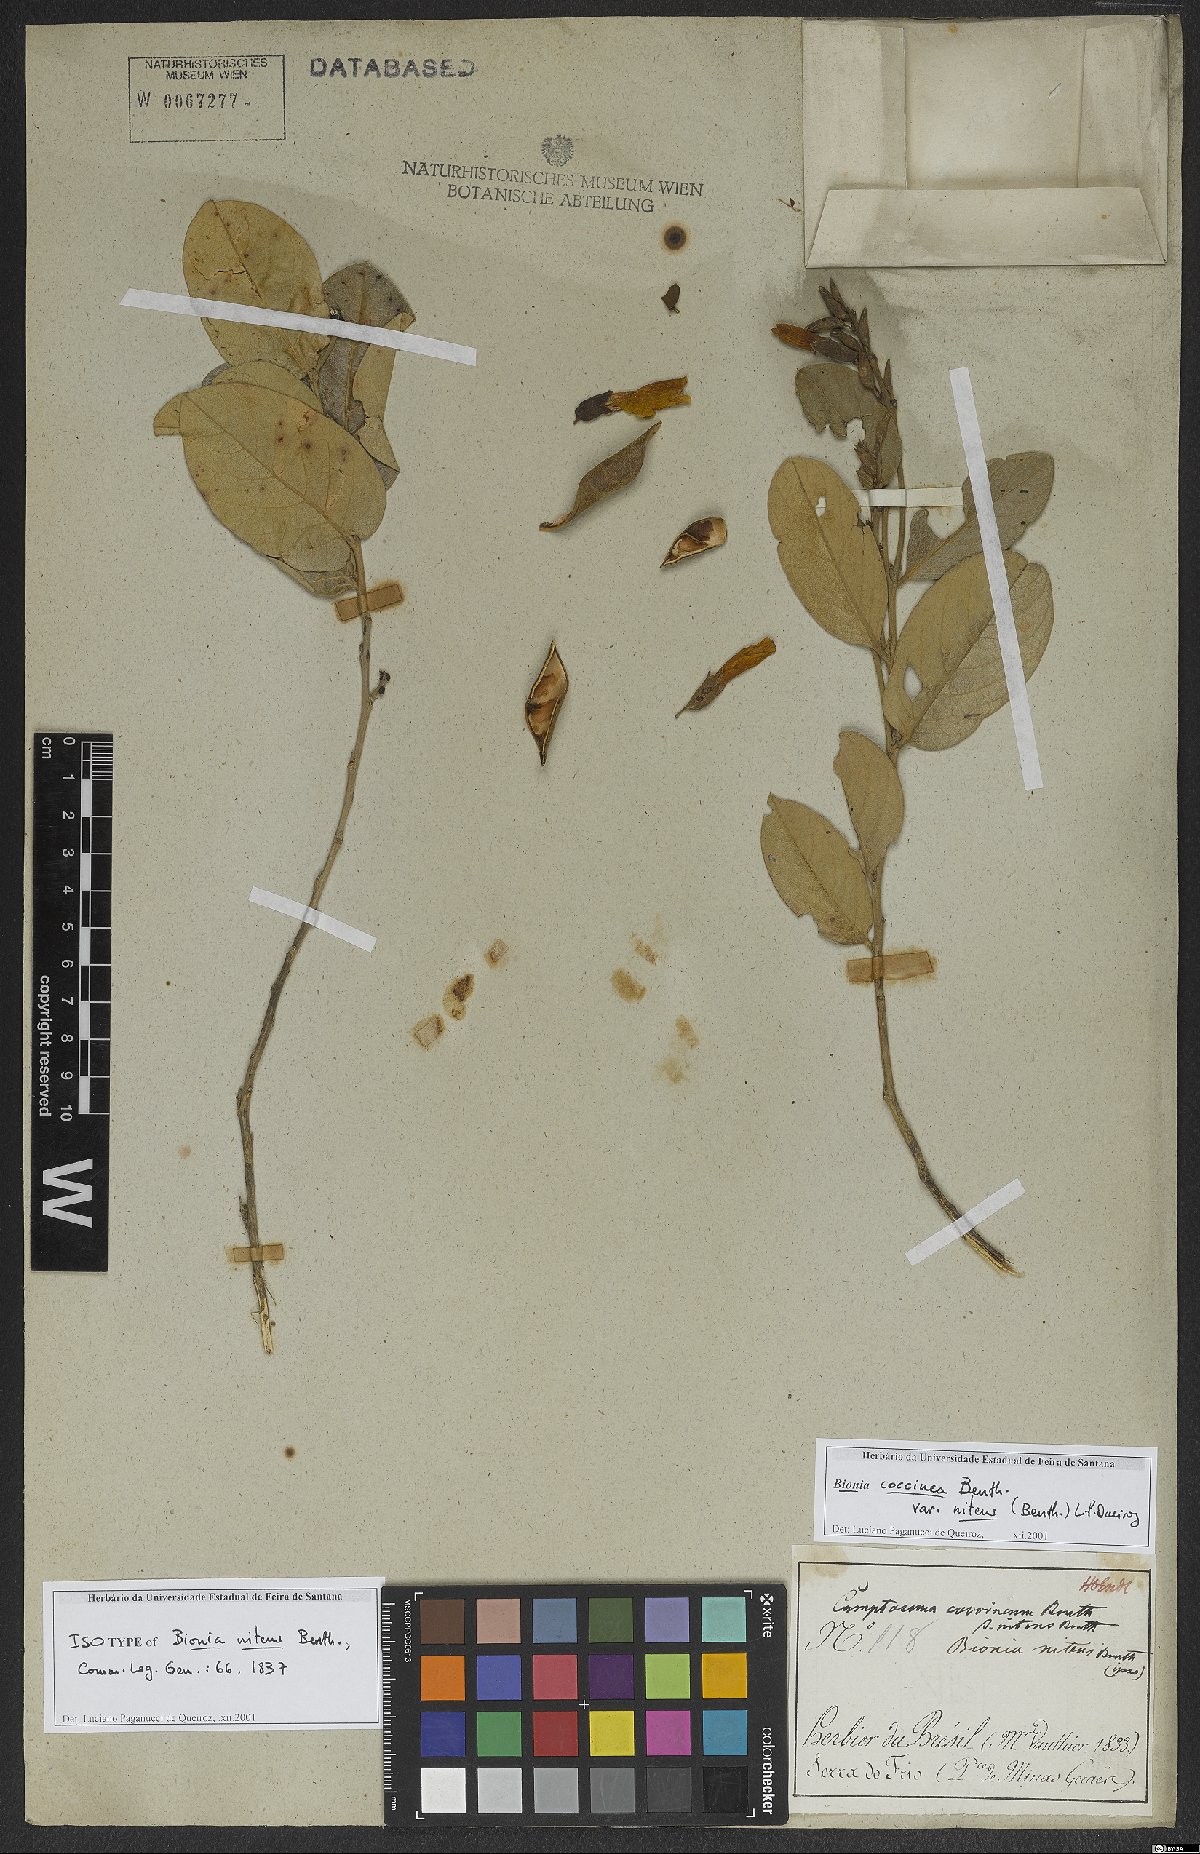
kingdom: Plantae
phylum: Tracheophyta
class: Magnoliopsida
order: Fabales
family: Fabaceae
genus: Camptosema
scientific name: Camptosema coccineum
